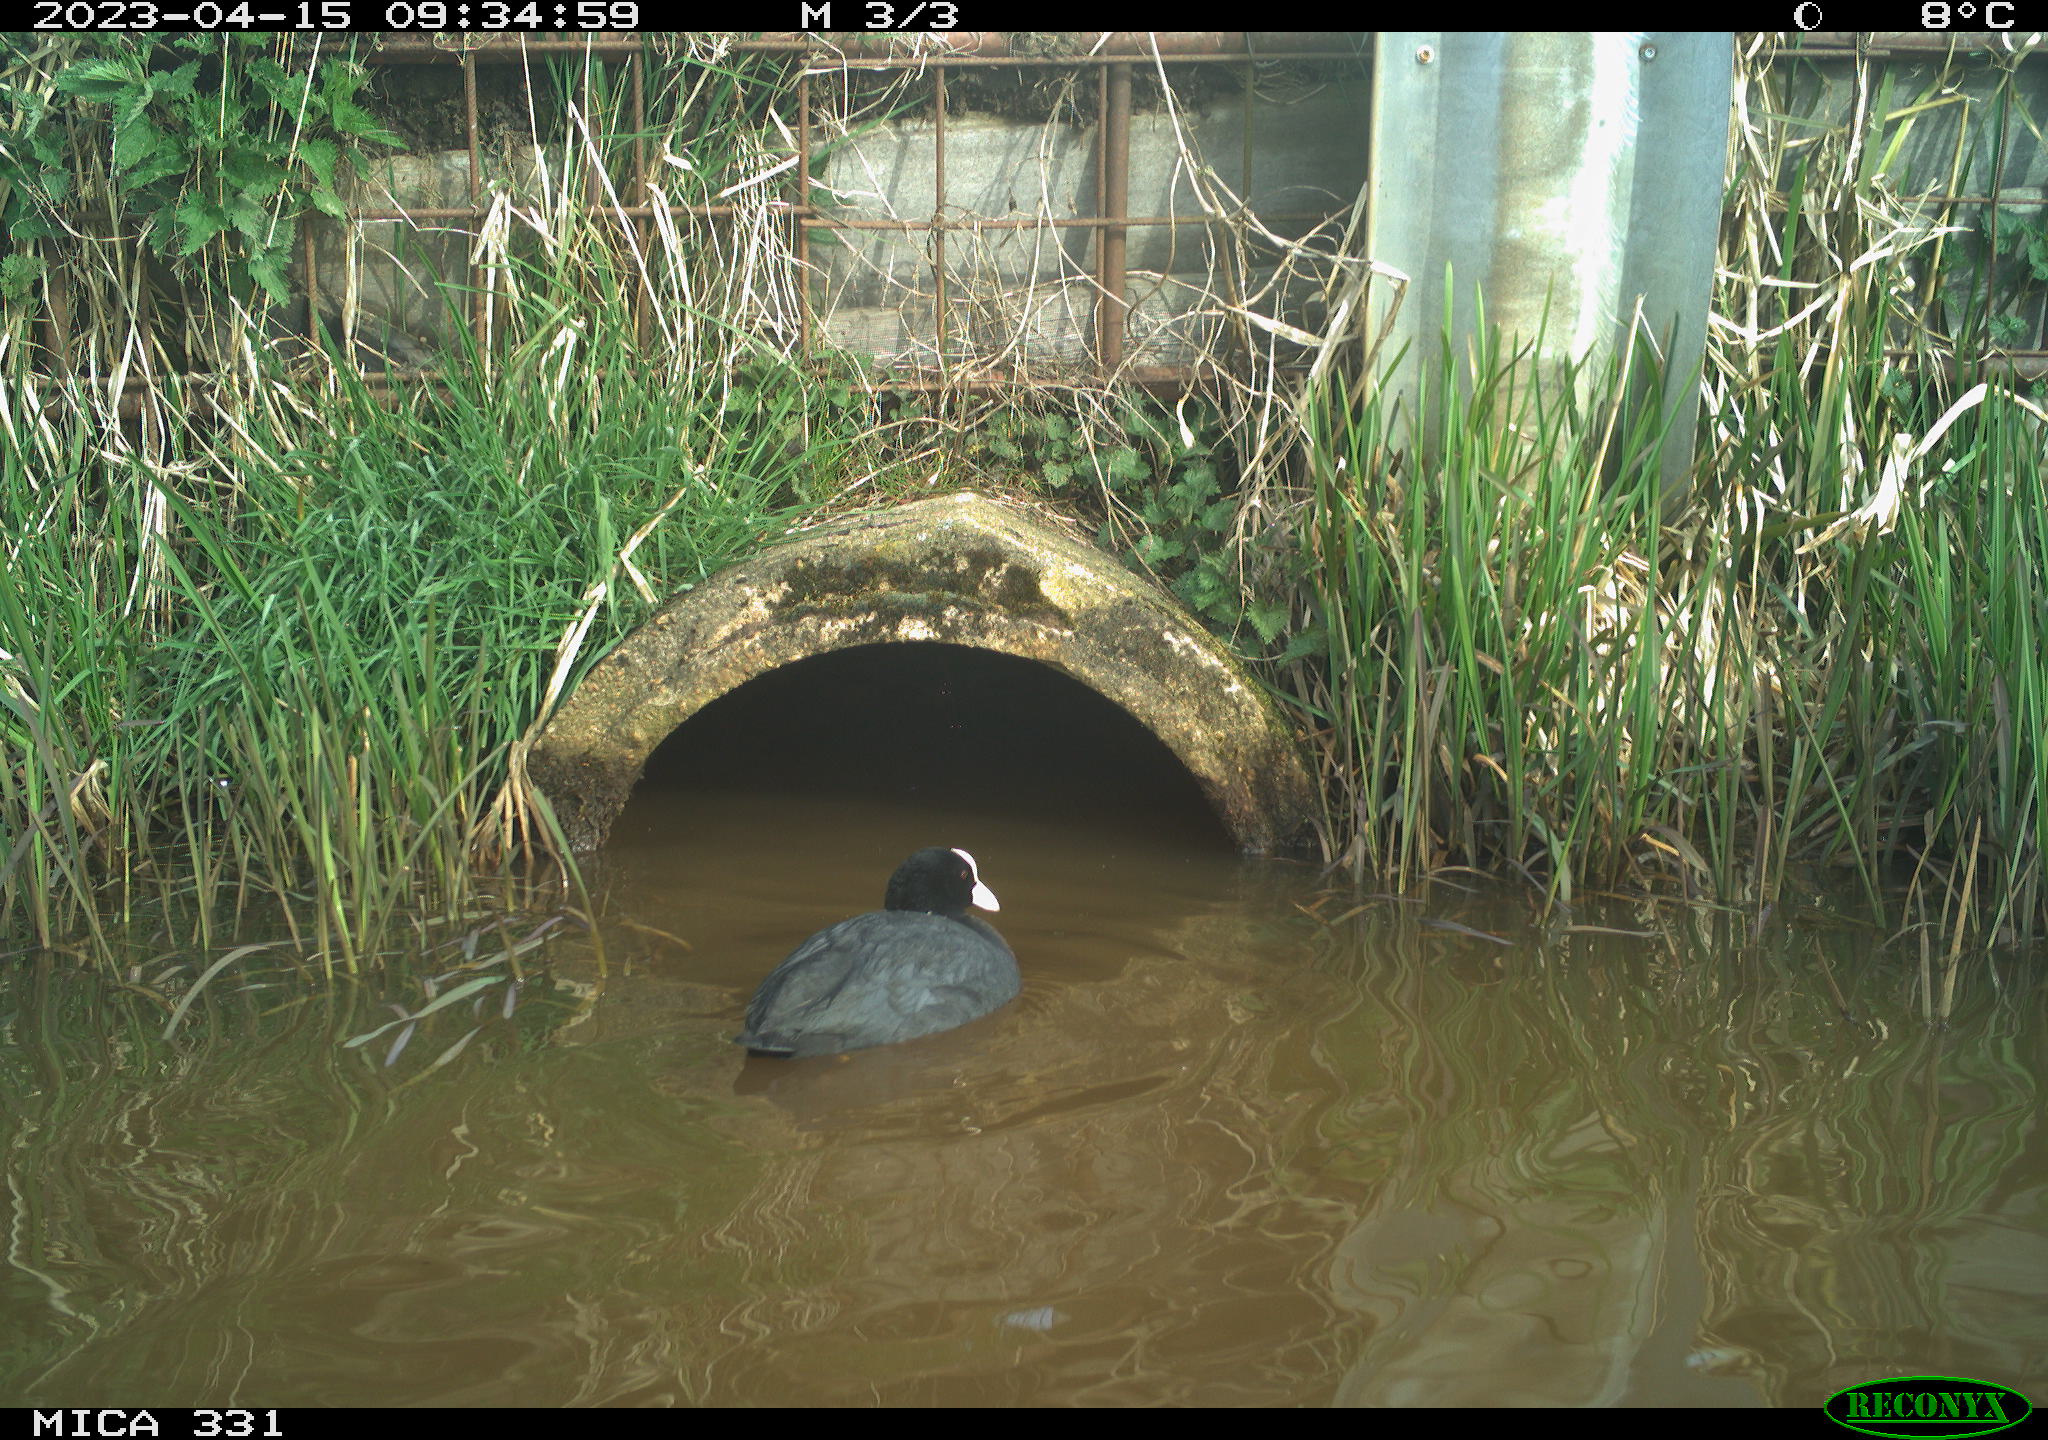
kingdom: Animalia
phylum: Chordata
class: Aves
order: Gruiformes
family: Rallidae
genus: Fulica
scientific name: Fulica atra
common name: Eurasian coot
